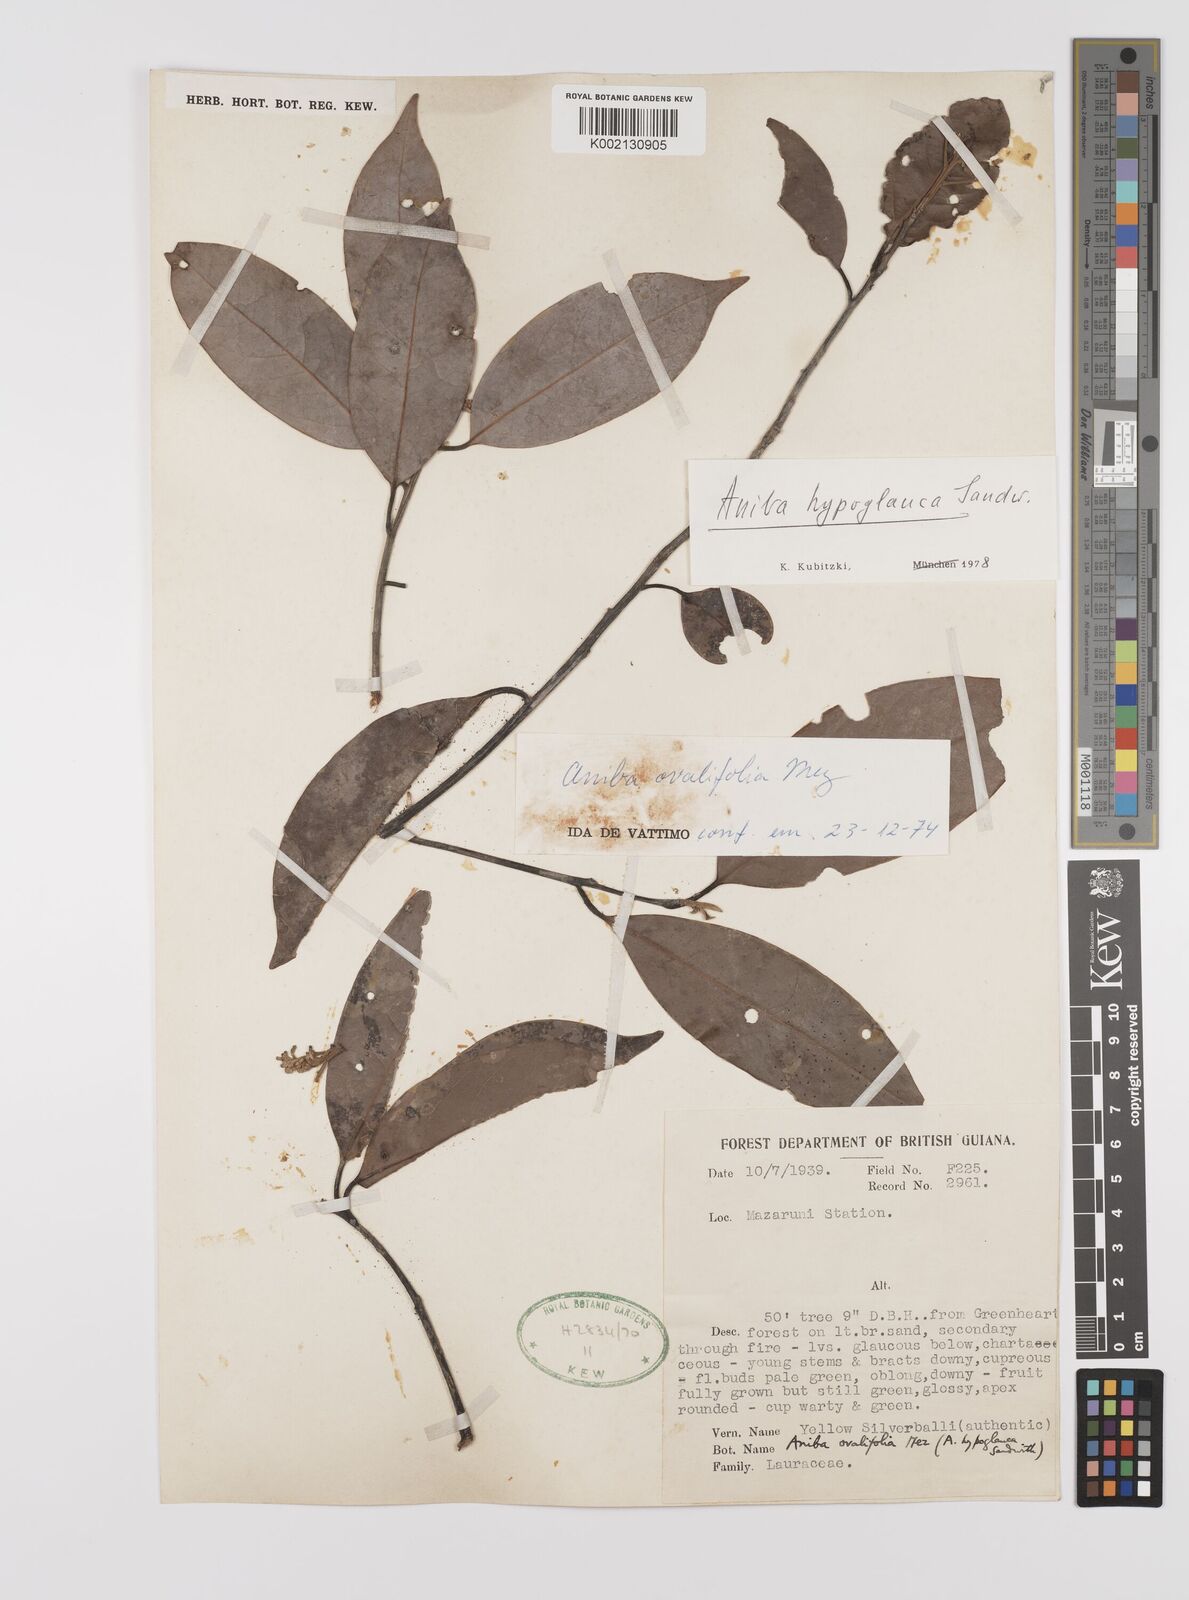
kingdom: Plantae
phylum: Tracheophyta
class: Magnoliopsida
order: Laurales
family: Lauraceae
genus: Aniba
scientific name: Aniba hypoglauca
